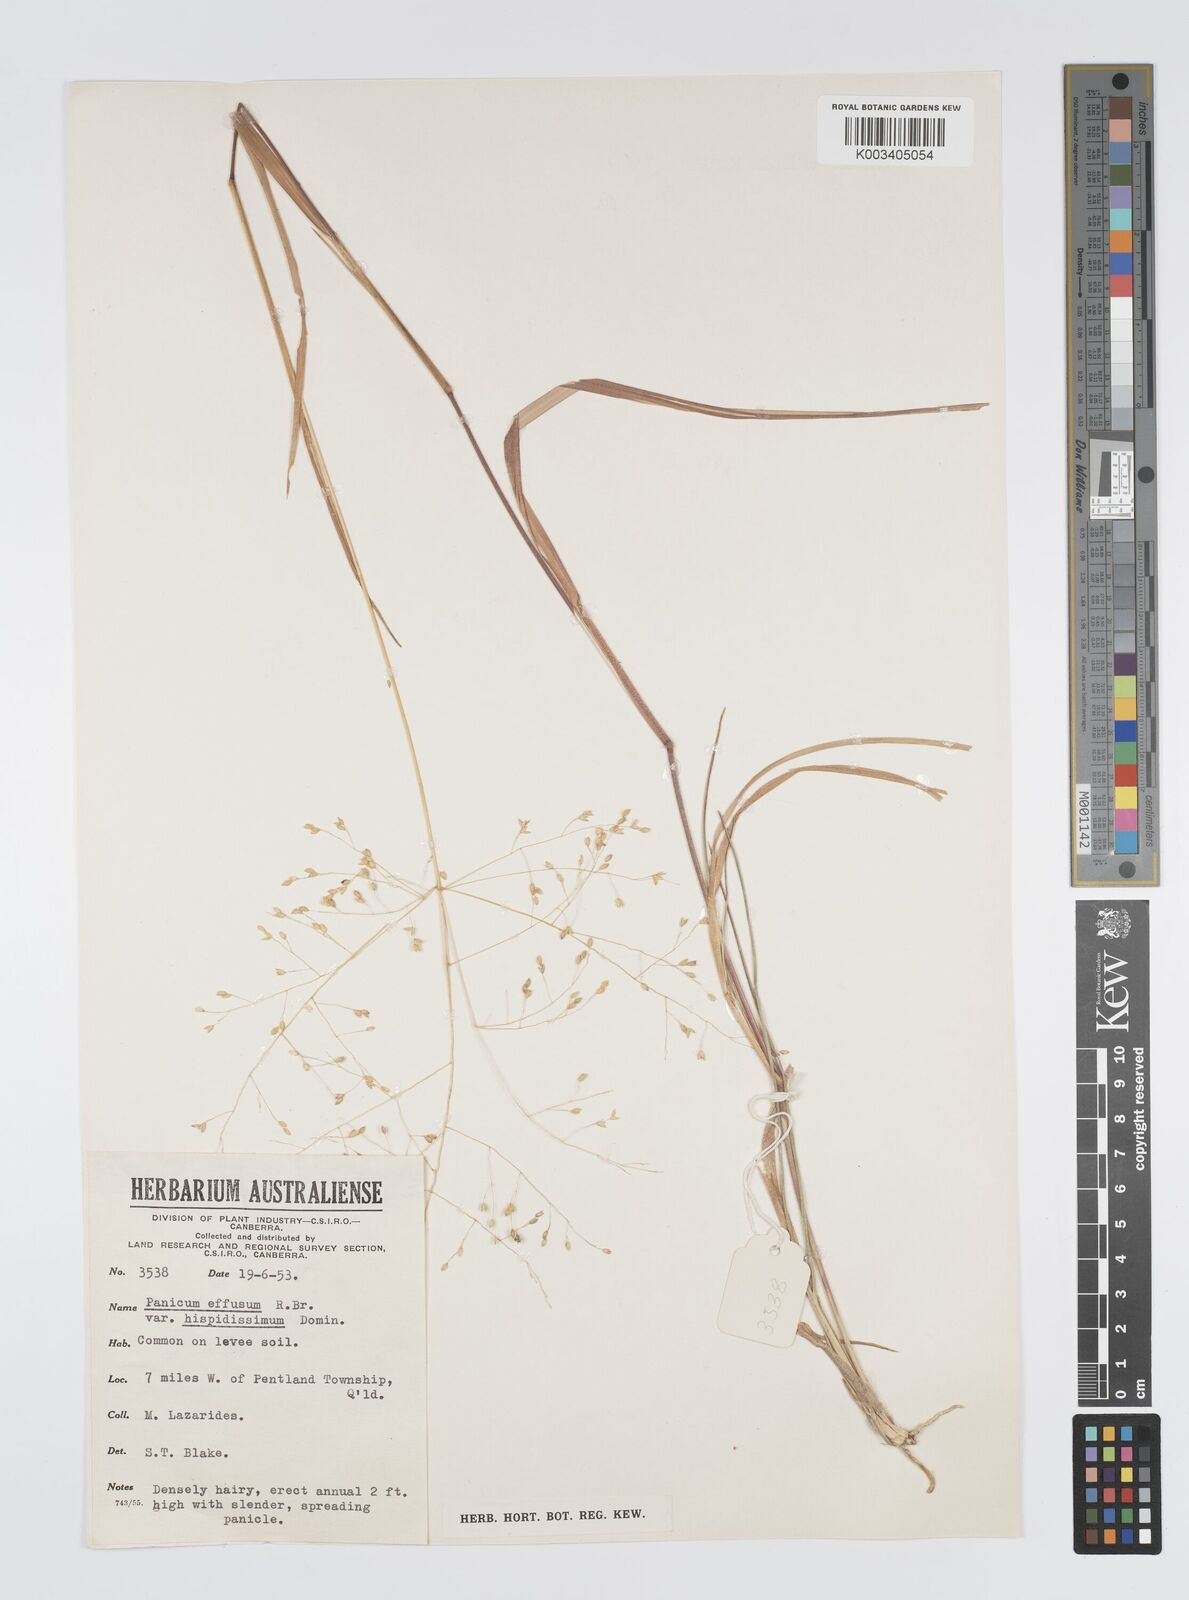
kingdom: Plantae
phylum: Tracheophyta
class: Liliopsida
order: Poales
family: Poaceae
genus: Panicum
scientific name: Panicum effusum
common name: Hairy panic grass
